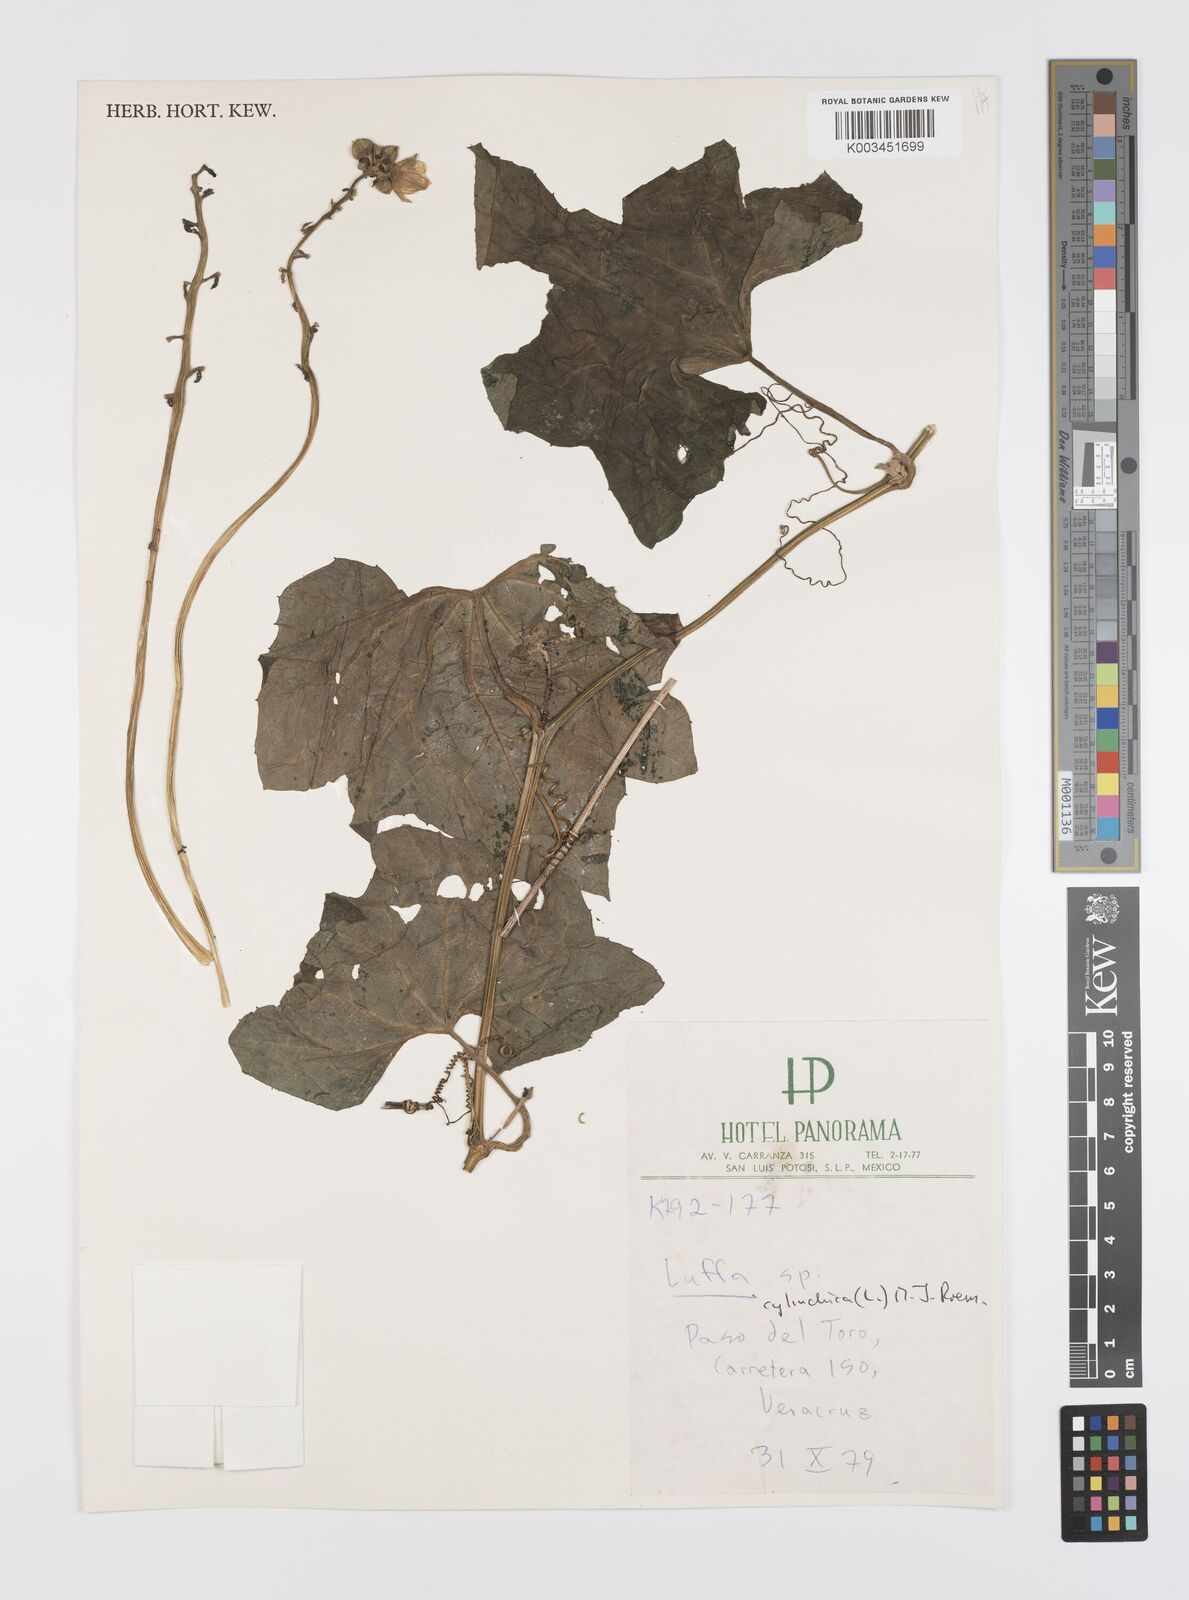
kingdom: Plantae
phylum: Tracheophyta
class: Magnoliopsida
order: Cucurbitales
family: Cucurbitaceae
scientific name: Cucurbitaceae
